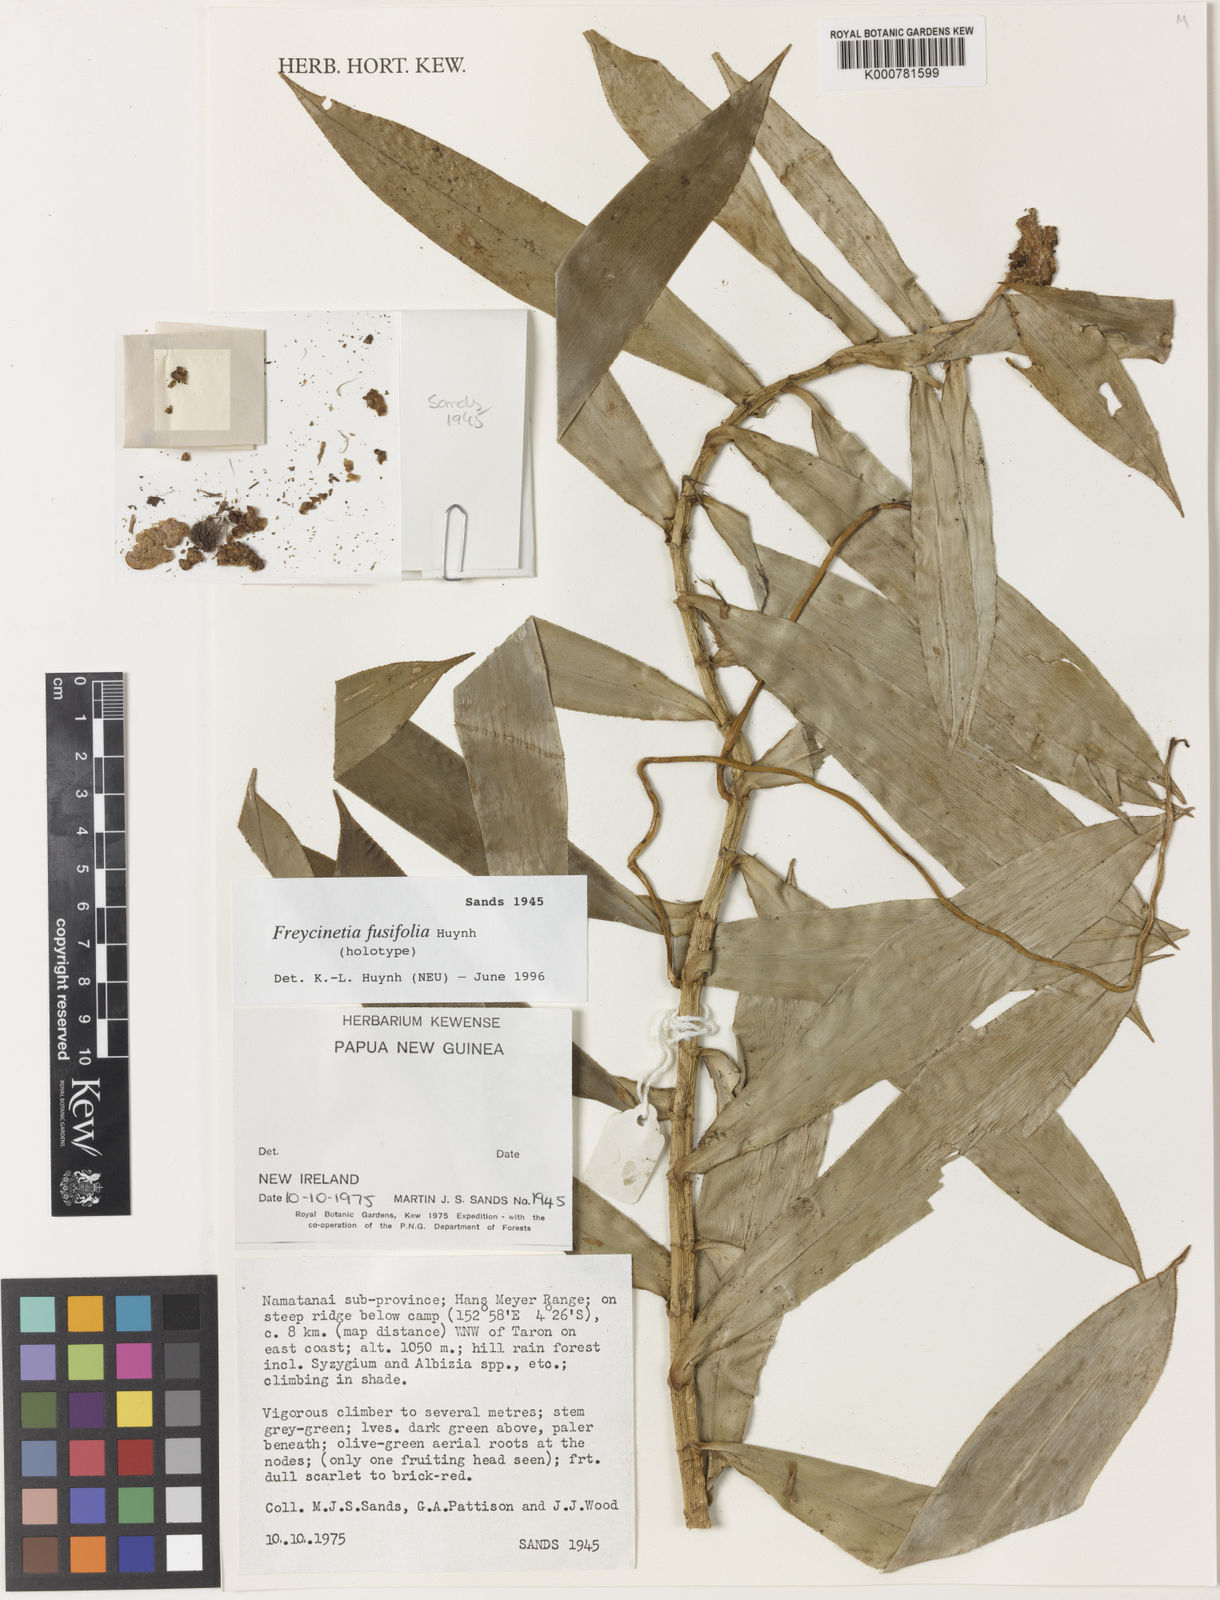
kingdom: Plantae
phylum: Tracheophyta
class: Liliopsida
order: Pandanales
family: Pandanaceae
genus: Freycinetia
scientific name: Freycinetia fusifolia
